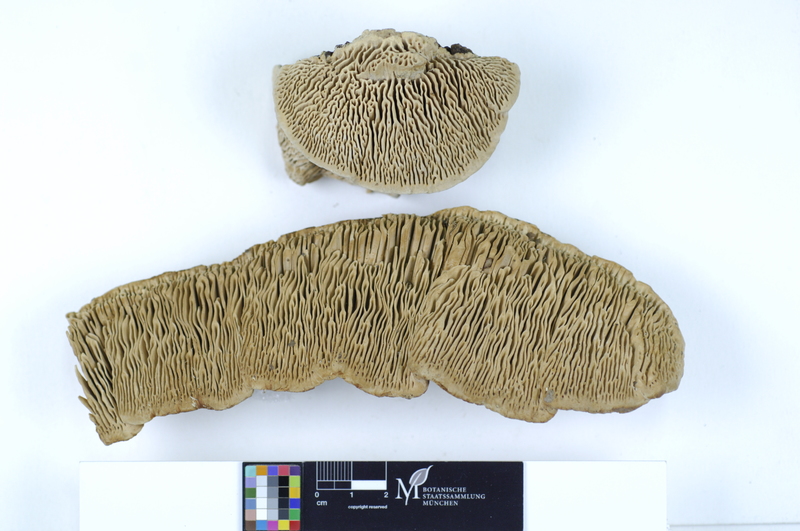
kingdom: Fungi
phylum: Basidiomycota
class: Agaricomycetes
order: Polyporales
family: Fomitopsidaceae
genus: Daedalea
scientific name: Daedalea quercina
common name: Oak mazegill
